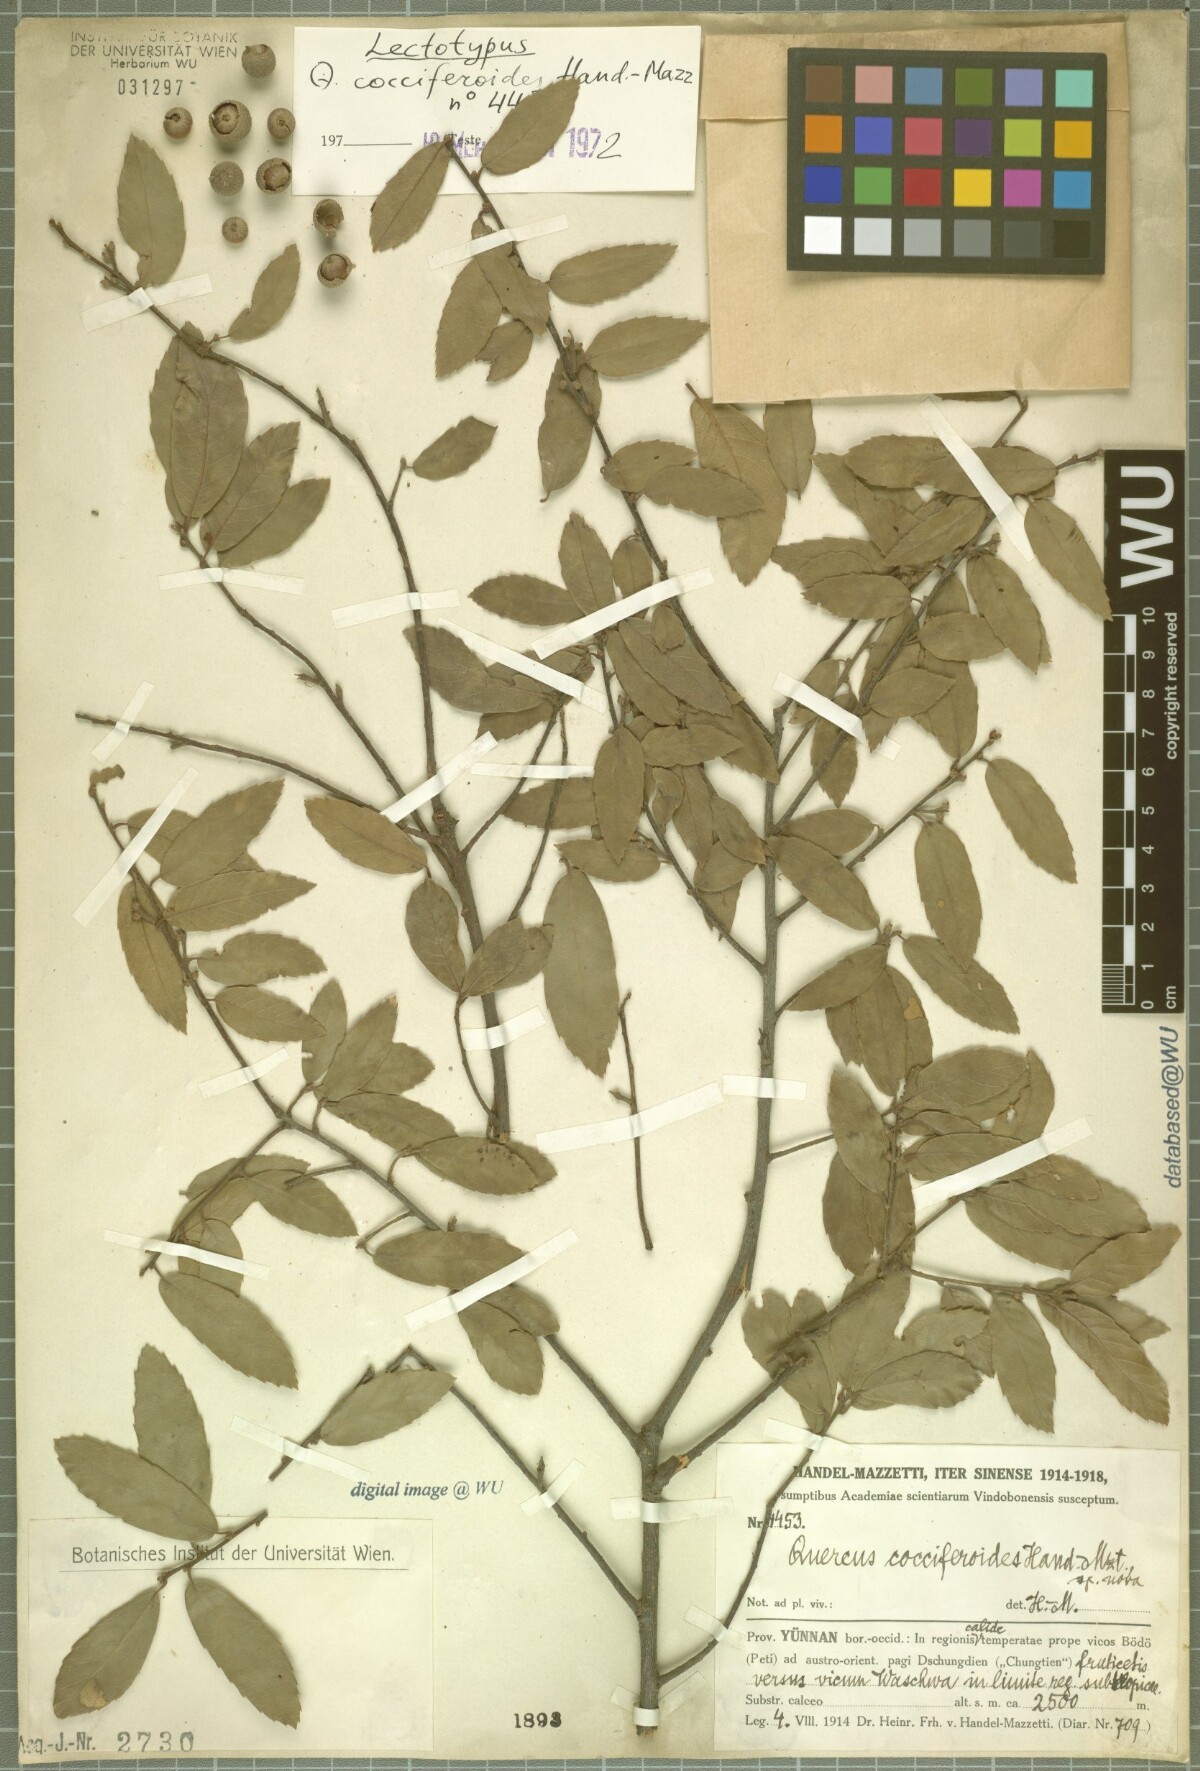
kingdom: Plantae
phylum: Tracheophyta
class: Magnoliopsida
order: Fagales
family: Fagaceae
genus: Quercus
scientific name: Quercus cocciferoides
